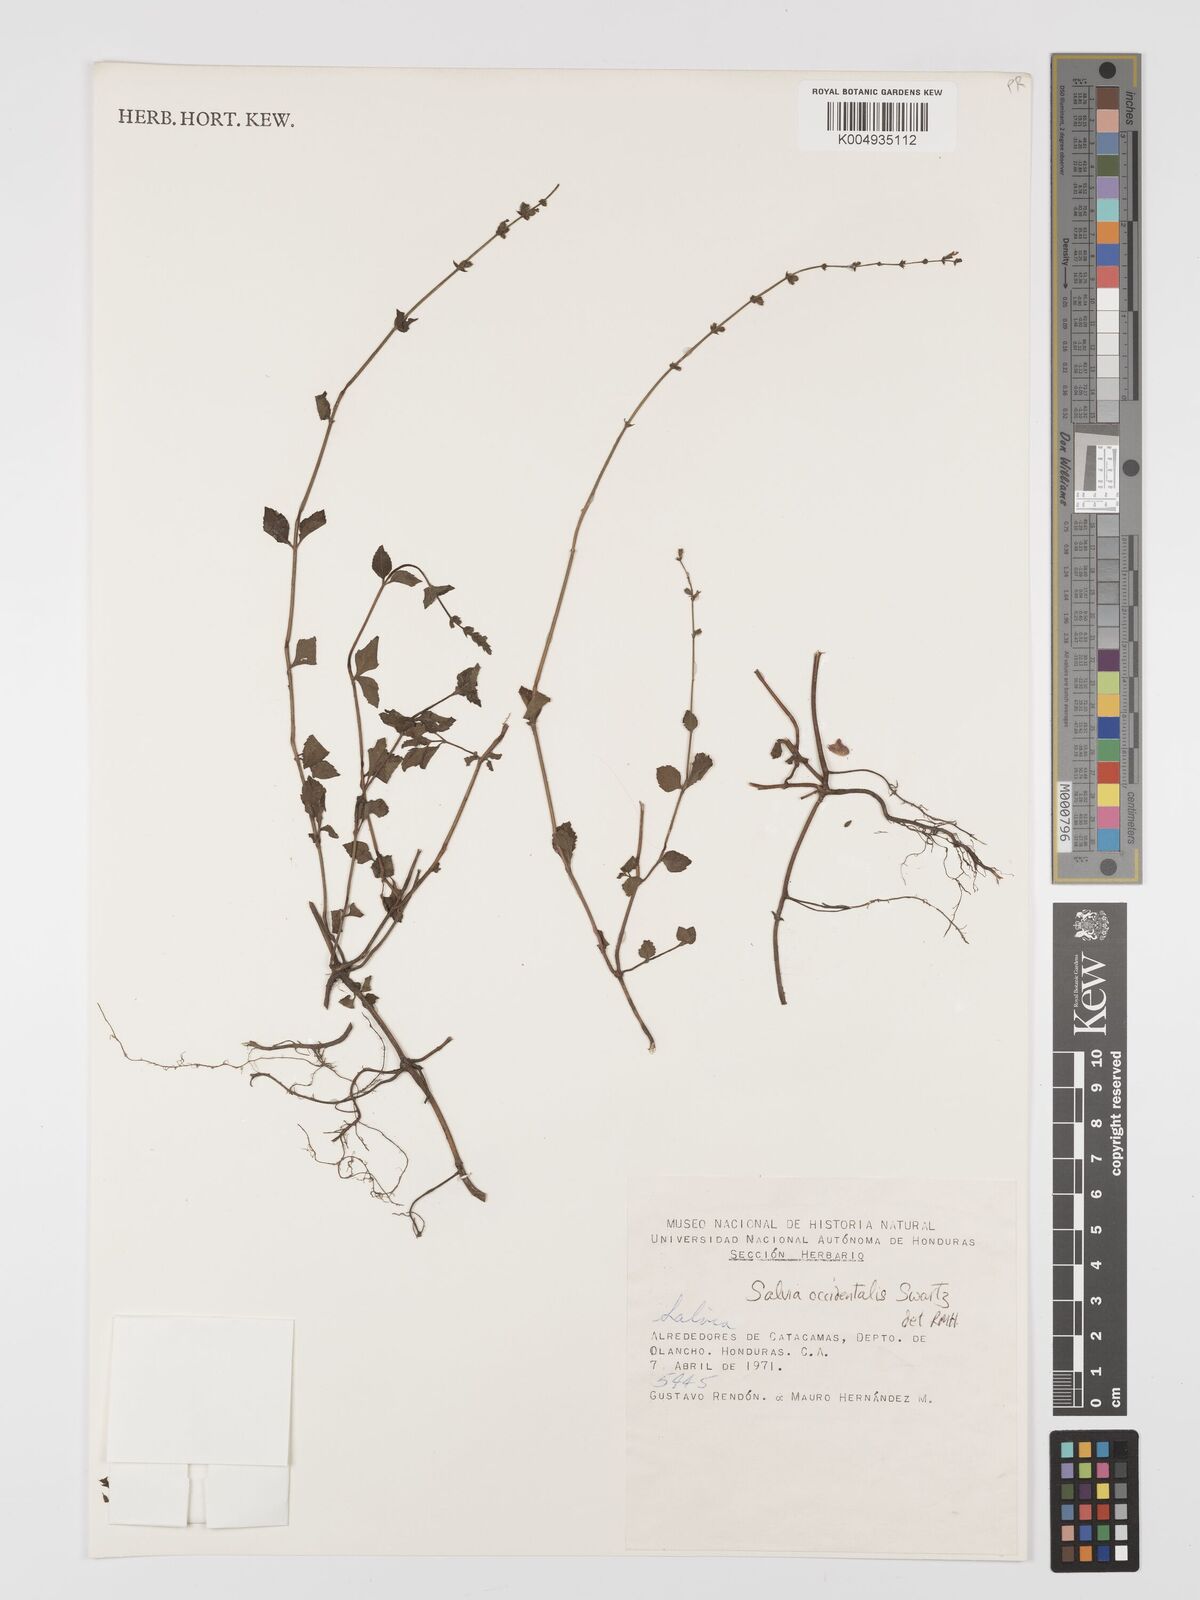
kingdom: Plantae
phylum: Tracheophyta
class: Magnoliopsida
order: Lamiales
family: Lamiaceae
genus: Salvia
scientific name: Salvia occidentalis
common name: West indian sage
